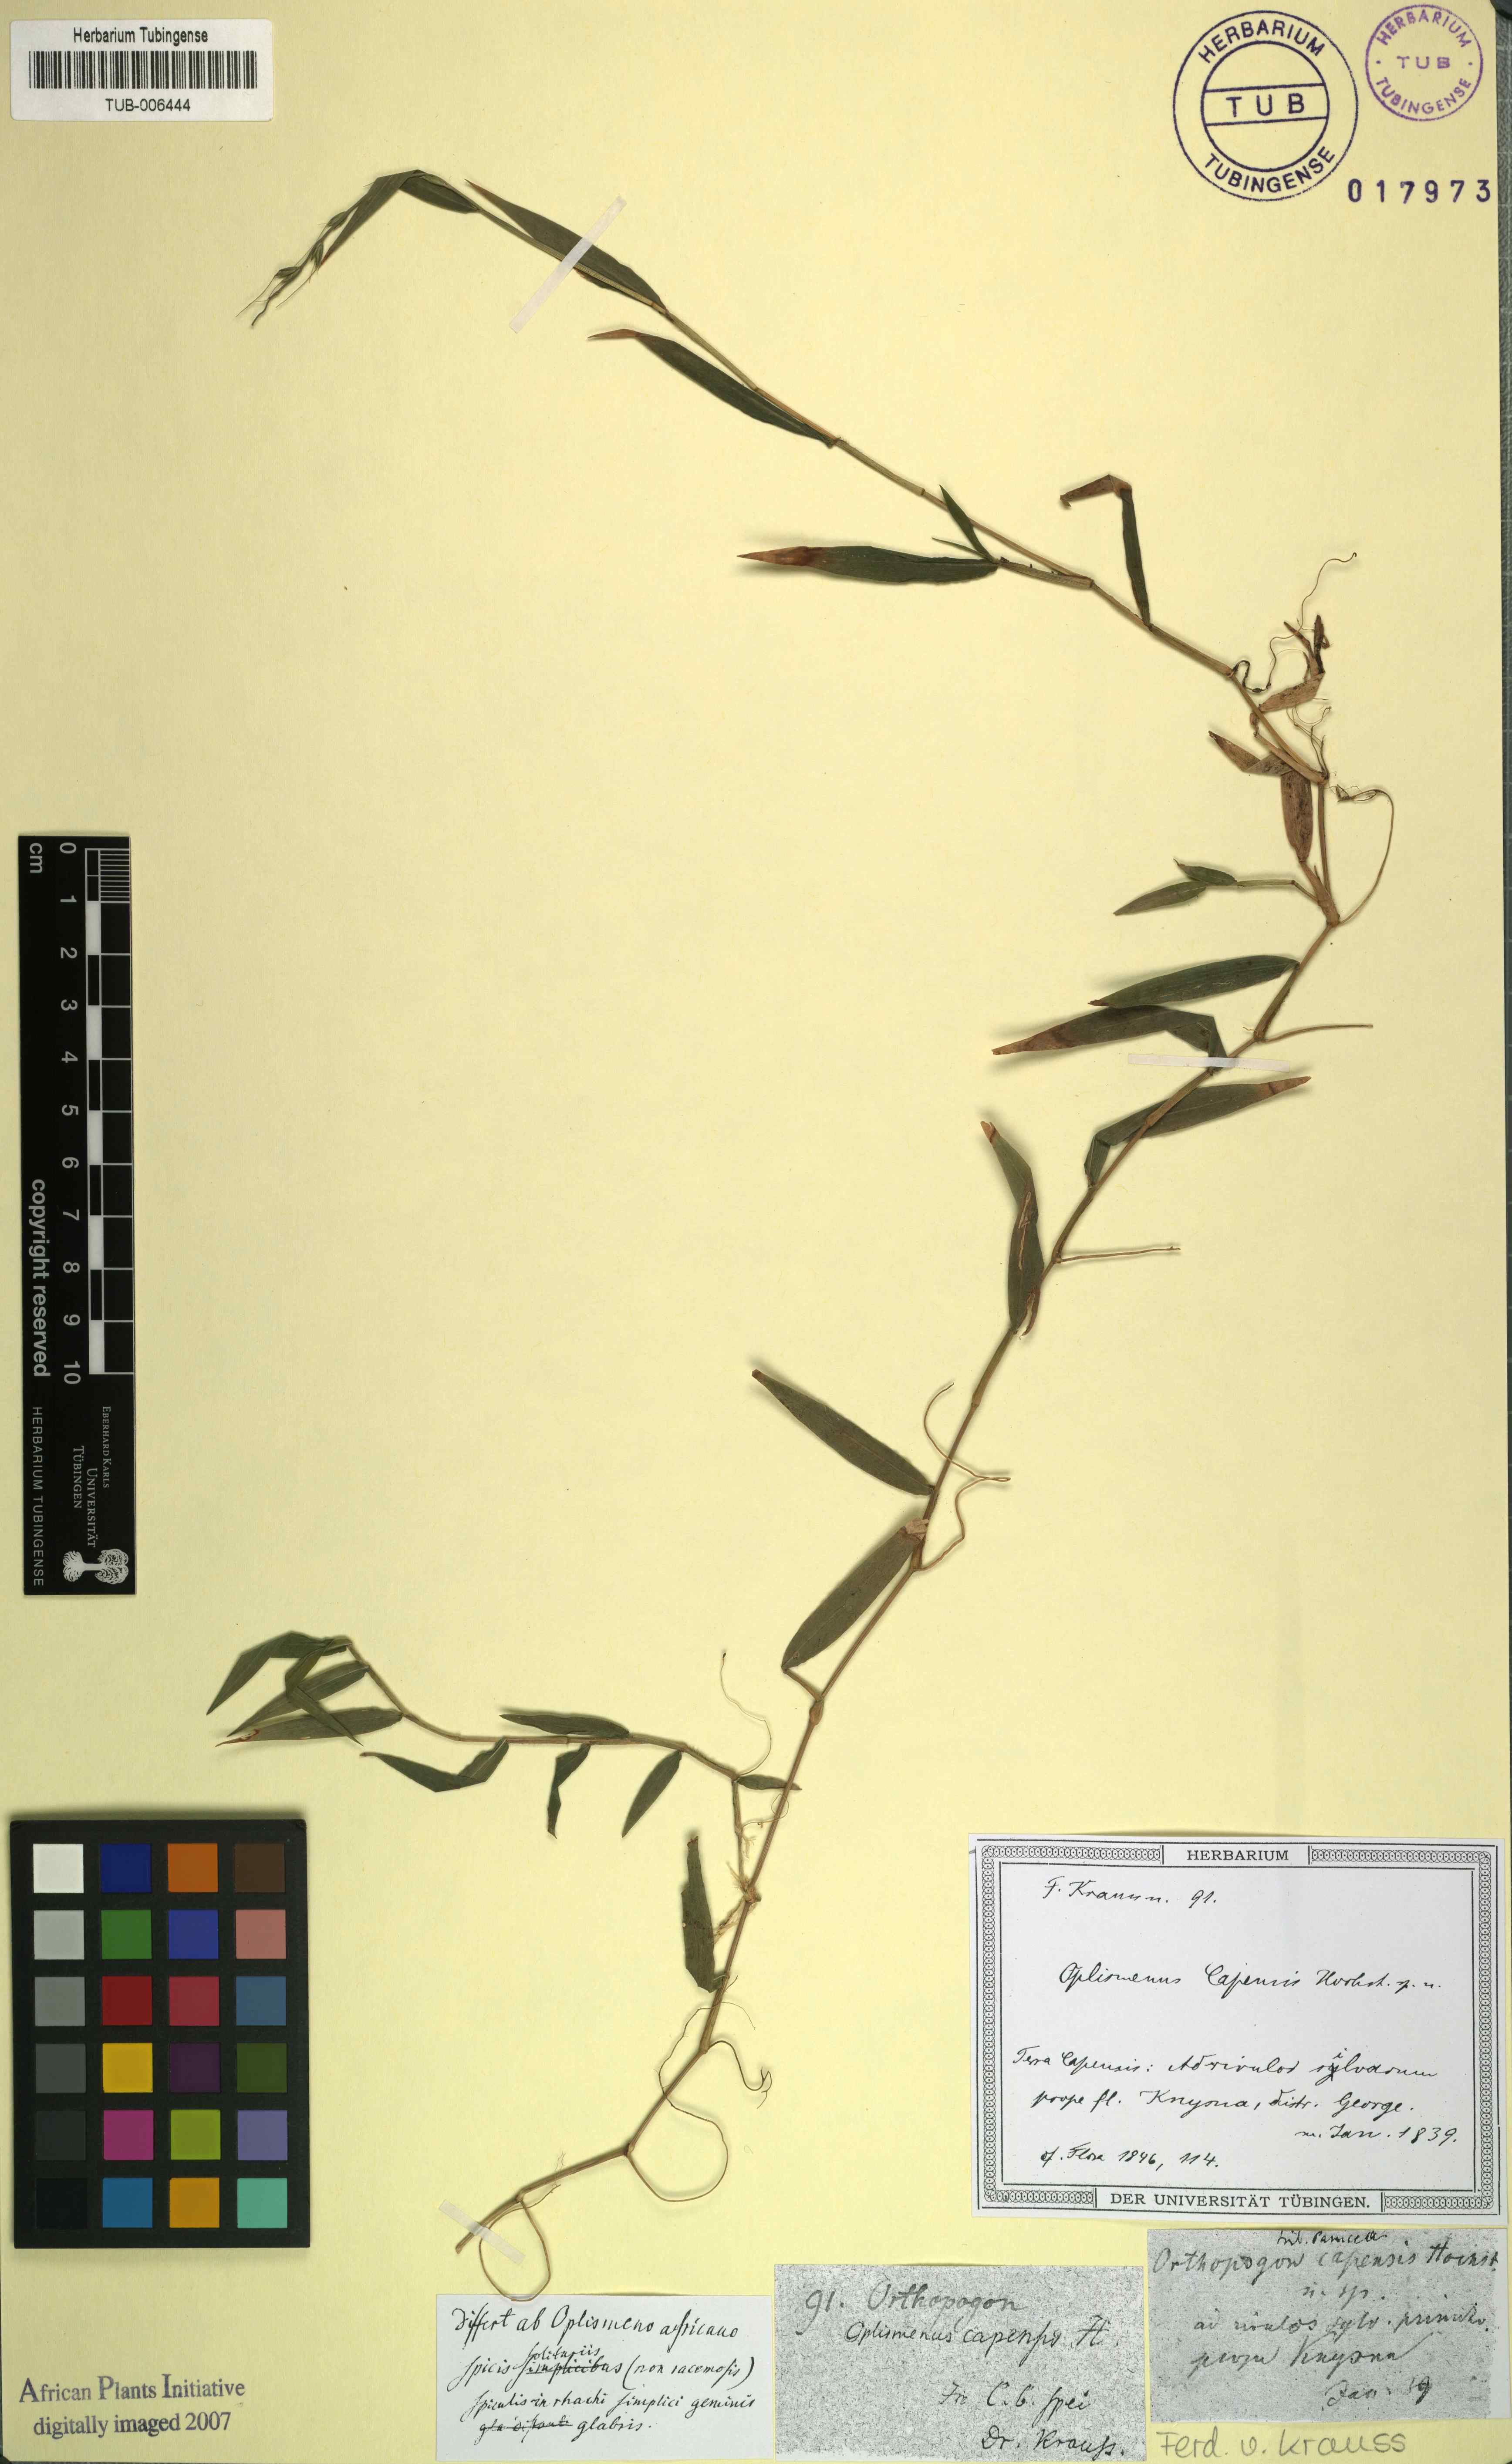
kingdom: Plantae
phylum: Tracheophyta
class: Liliopsida
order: Poales
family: Poaceae
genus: Oplismenus
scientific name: Oplismenus undulatifolius
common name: Wavyleaf basketgrass
